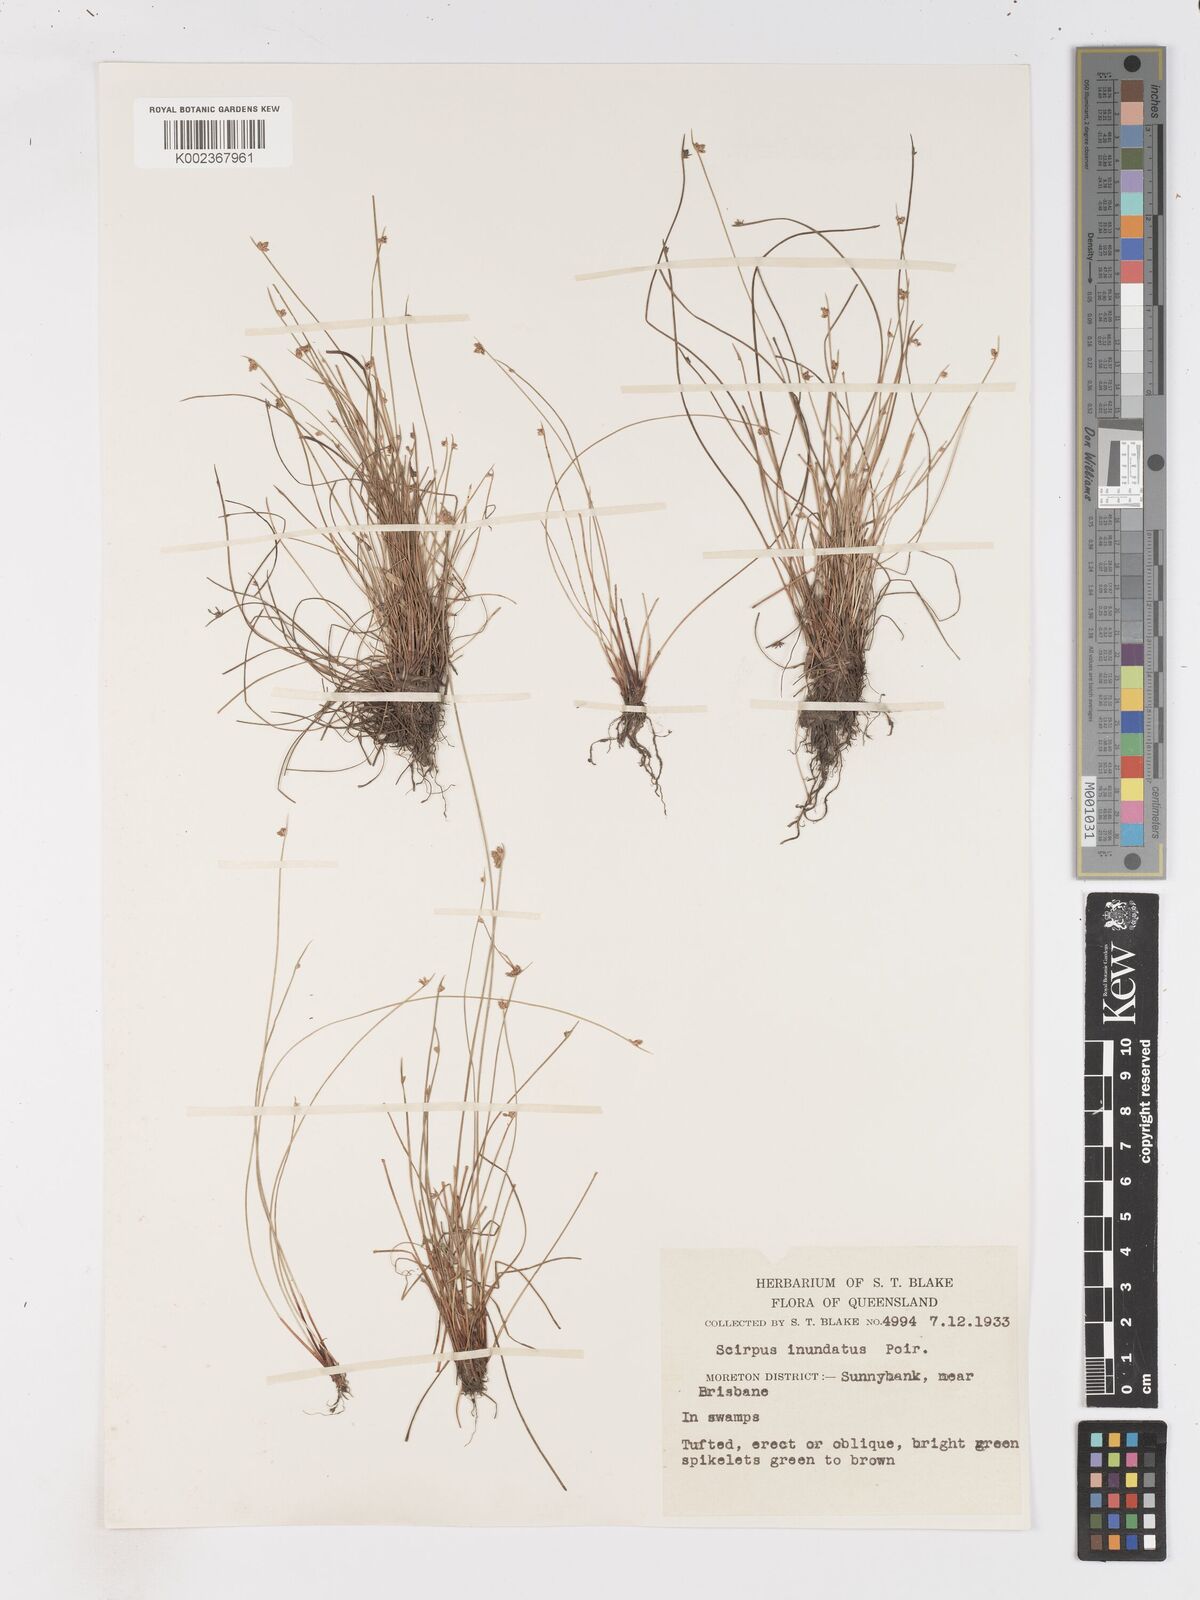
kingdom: Plantae
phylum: Tracheophyta
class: Liliopsida
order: Poales
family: Cyperaceae
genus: Isolepis
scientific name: Isolepis inundata
